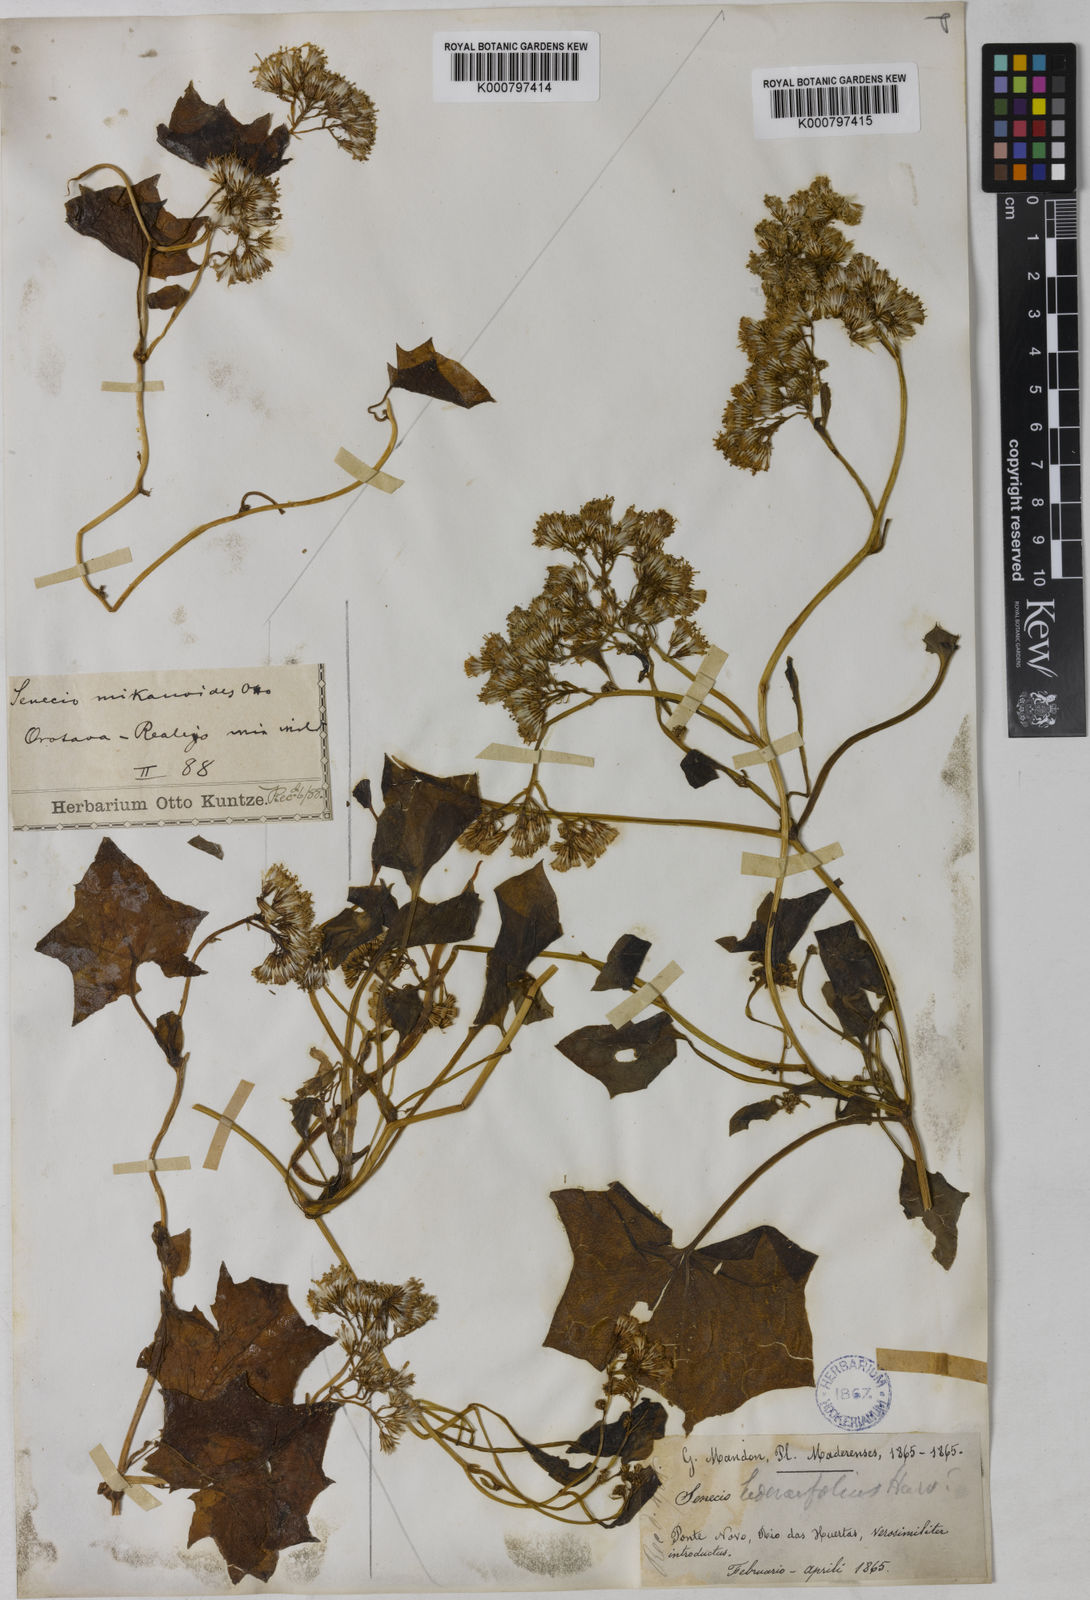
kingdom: Plantae
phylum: Tracheophyta
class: Magnoliopsida
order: Asterales
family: Asteraceae
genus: Delairea
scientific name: Delairea odorata
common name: Cape-ivy
